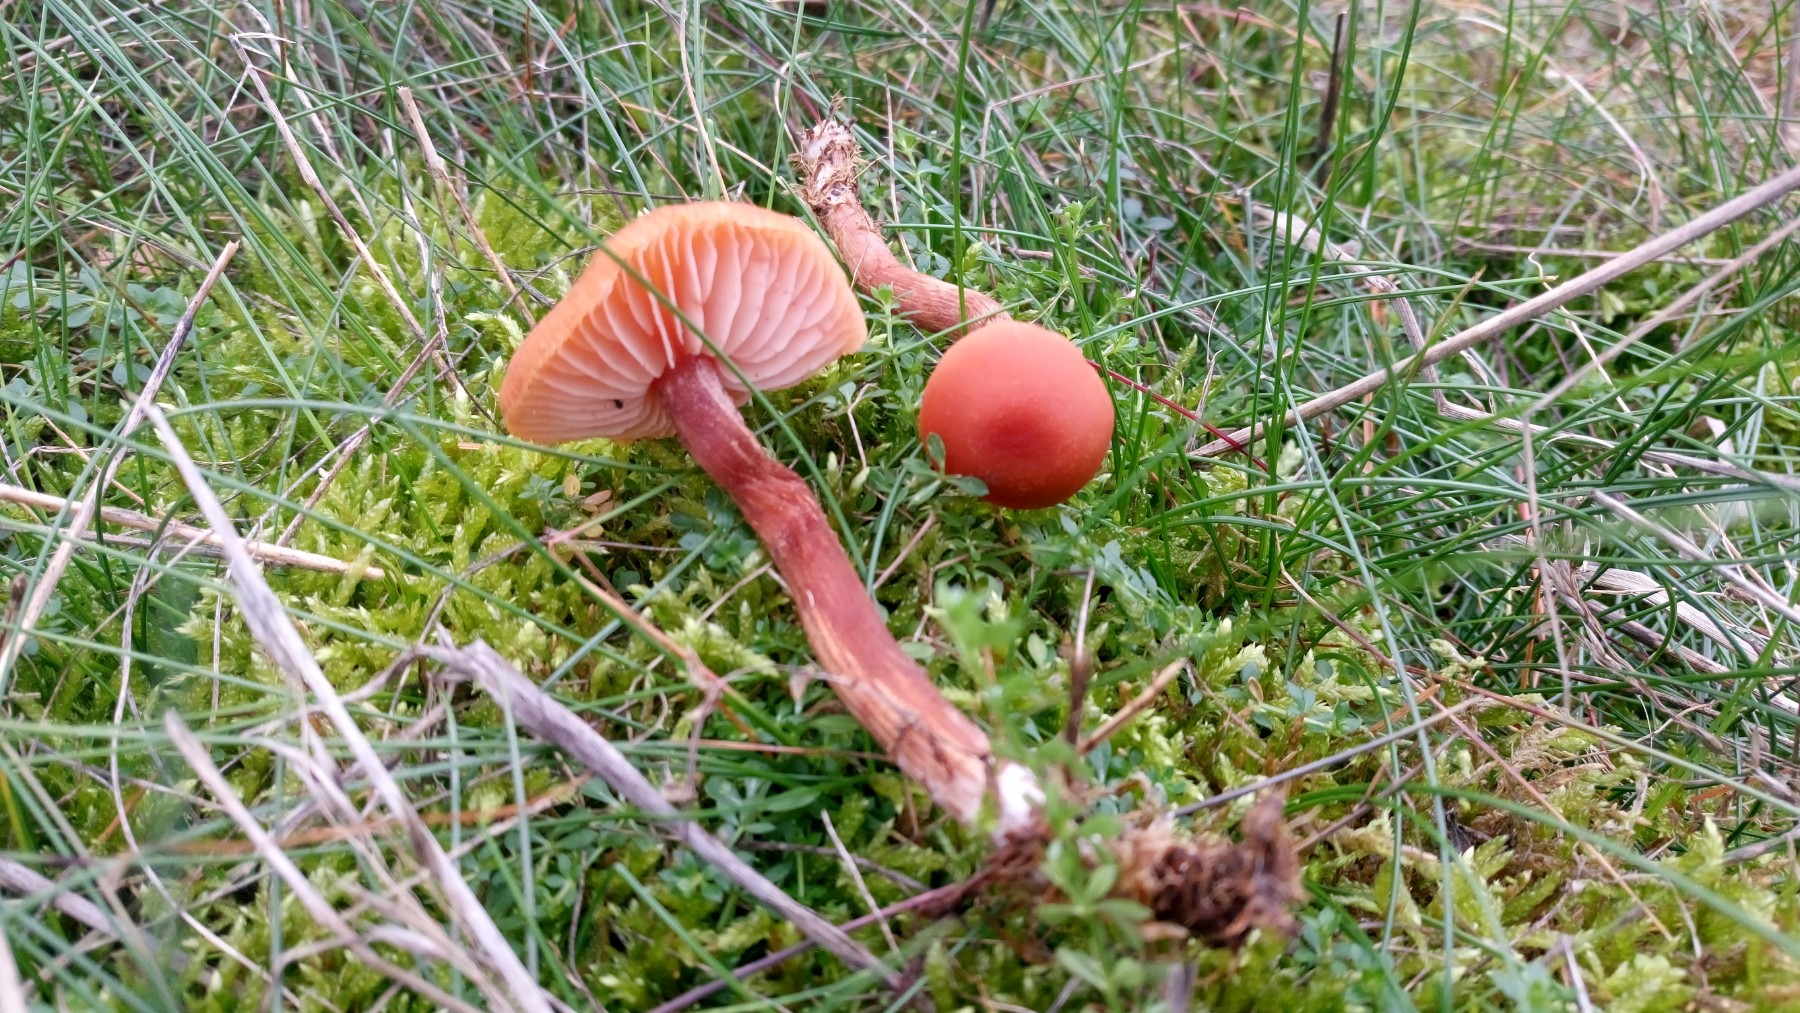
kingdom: Fungi
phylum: Basidiomycota
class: Agaricomycetes
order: Agaricales
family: Hydnangiaceae
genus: Laccaria
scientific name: Laccaria laccata
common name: rød ametysthat
